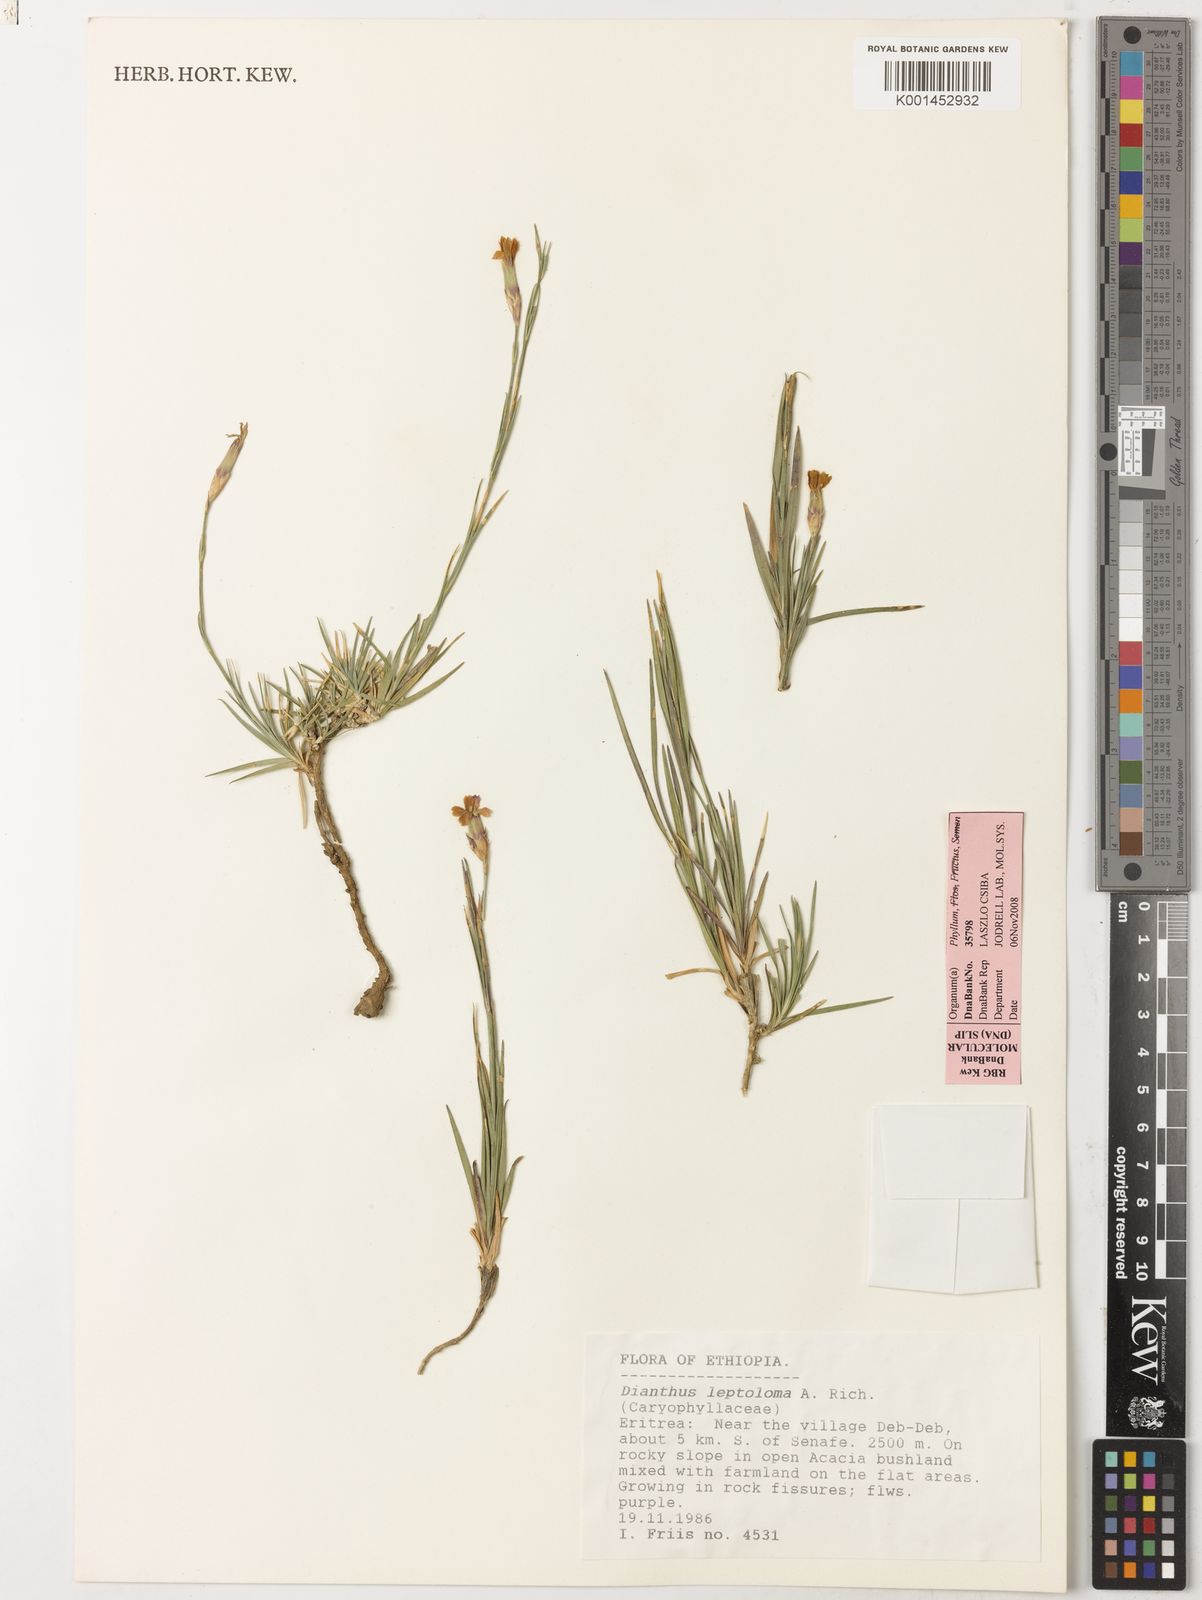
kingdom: Plantae
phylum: Tracheophyta
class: Magnoliopsida
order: Caryophyllales
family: Caryophyllaceae
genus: Dianthus
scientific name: Dianthus leptoloma
